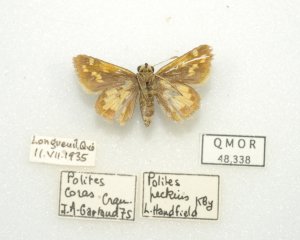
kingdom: Animalia
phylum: Arthropoda
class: Insecta
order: Lepidoptera
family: Hesperiidae
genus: Polites
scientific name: Polites coras
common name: Peck's Skipper
